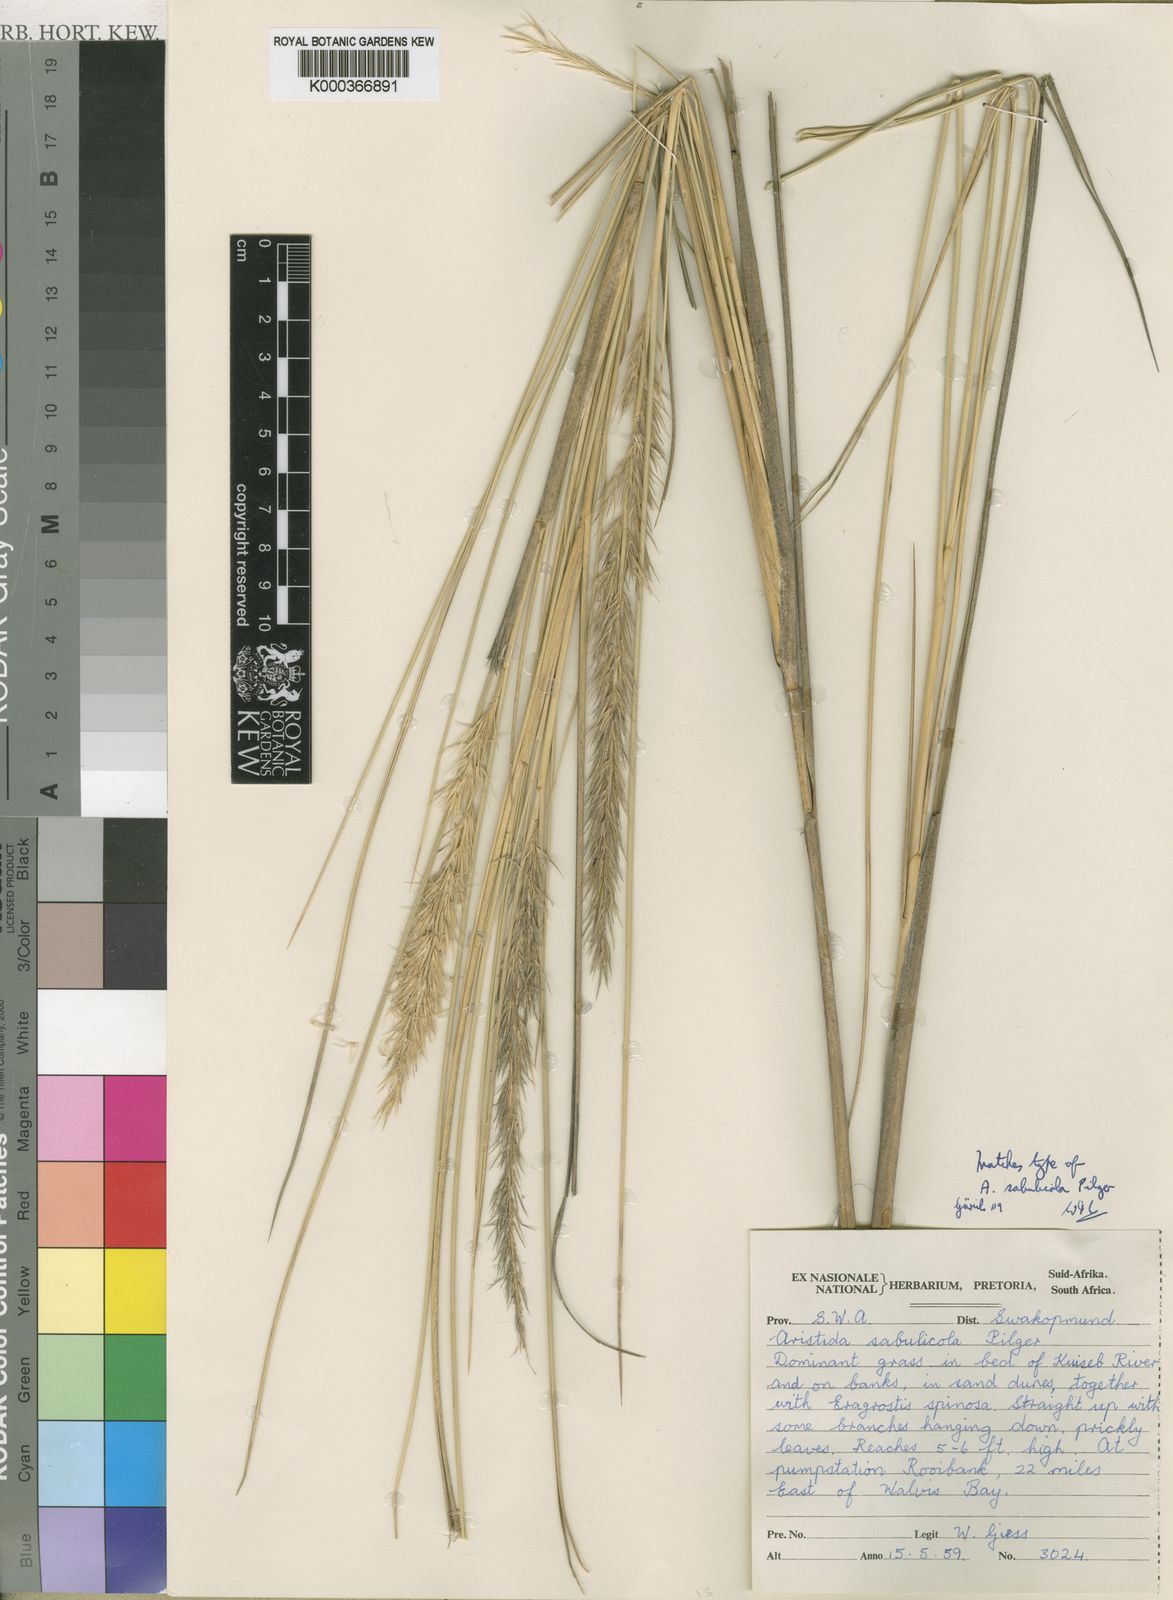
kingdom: Plantae
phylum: Tracheophyta
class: Liliopsida
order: Poales
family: Poaceae
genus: Stipagrostis
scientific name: Stipagrostis sabulicola
